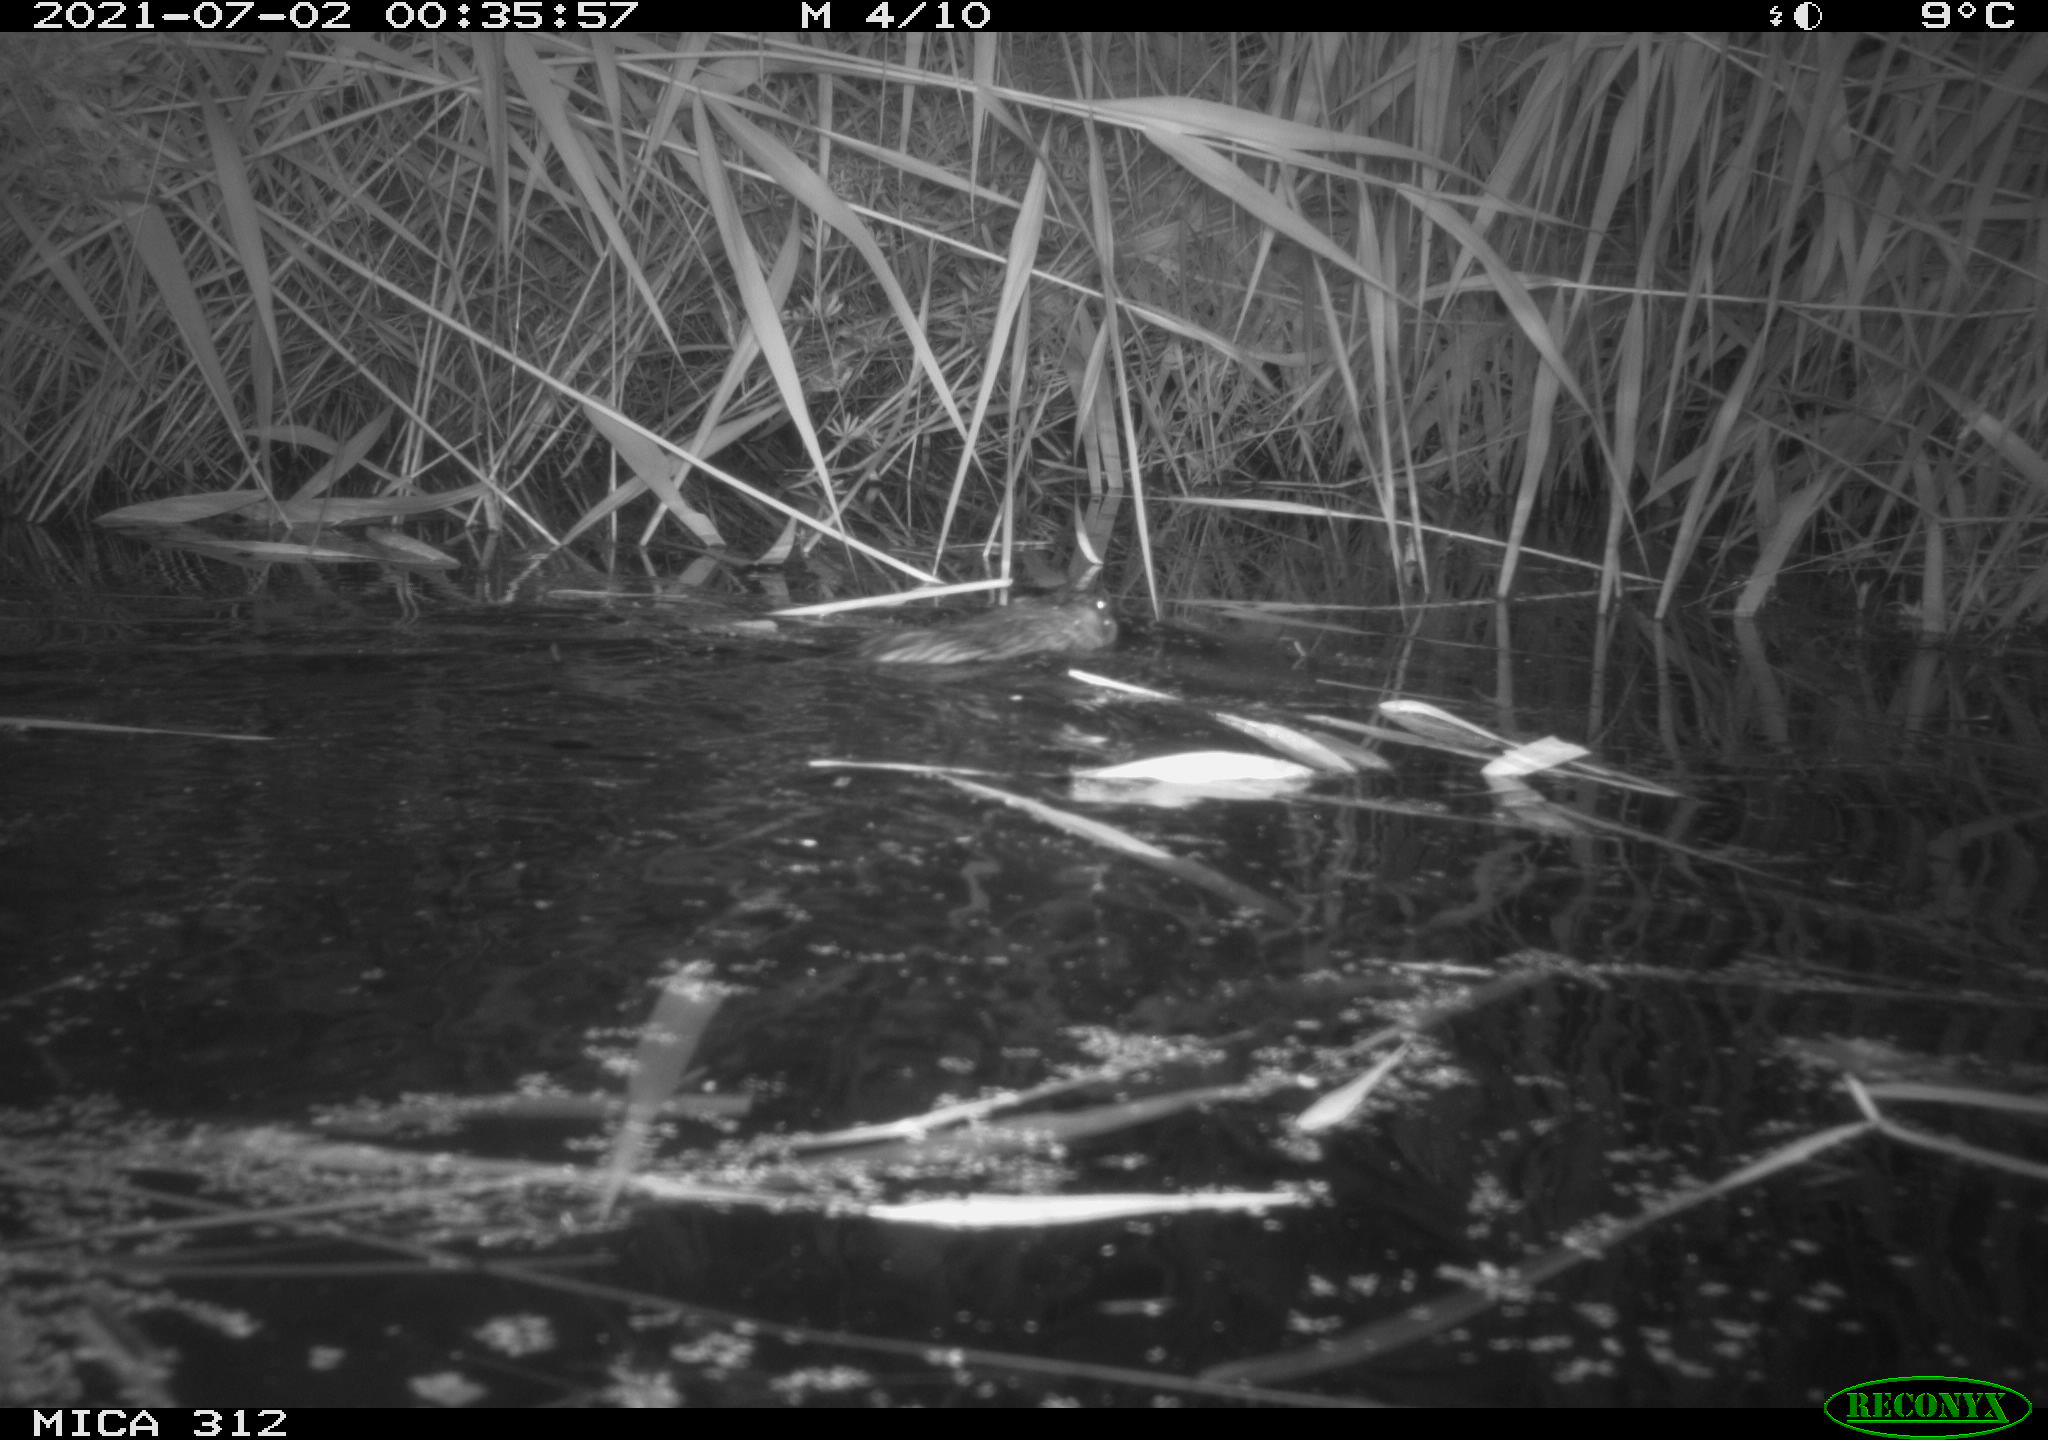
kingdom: Animalia
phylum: Chordata
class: Mammalia
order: Rodentia
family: Cricetidae
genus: Ondatra
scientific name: Ondatra zibethicus
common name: Muskrat
